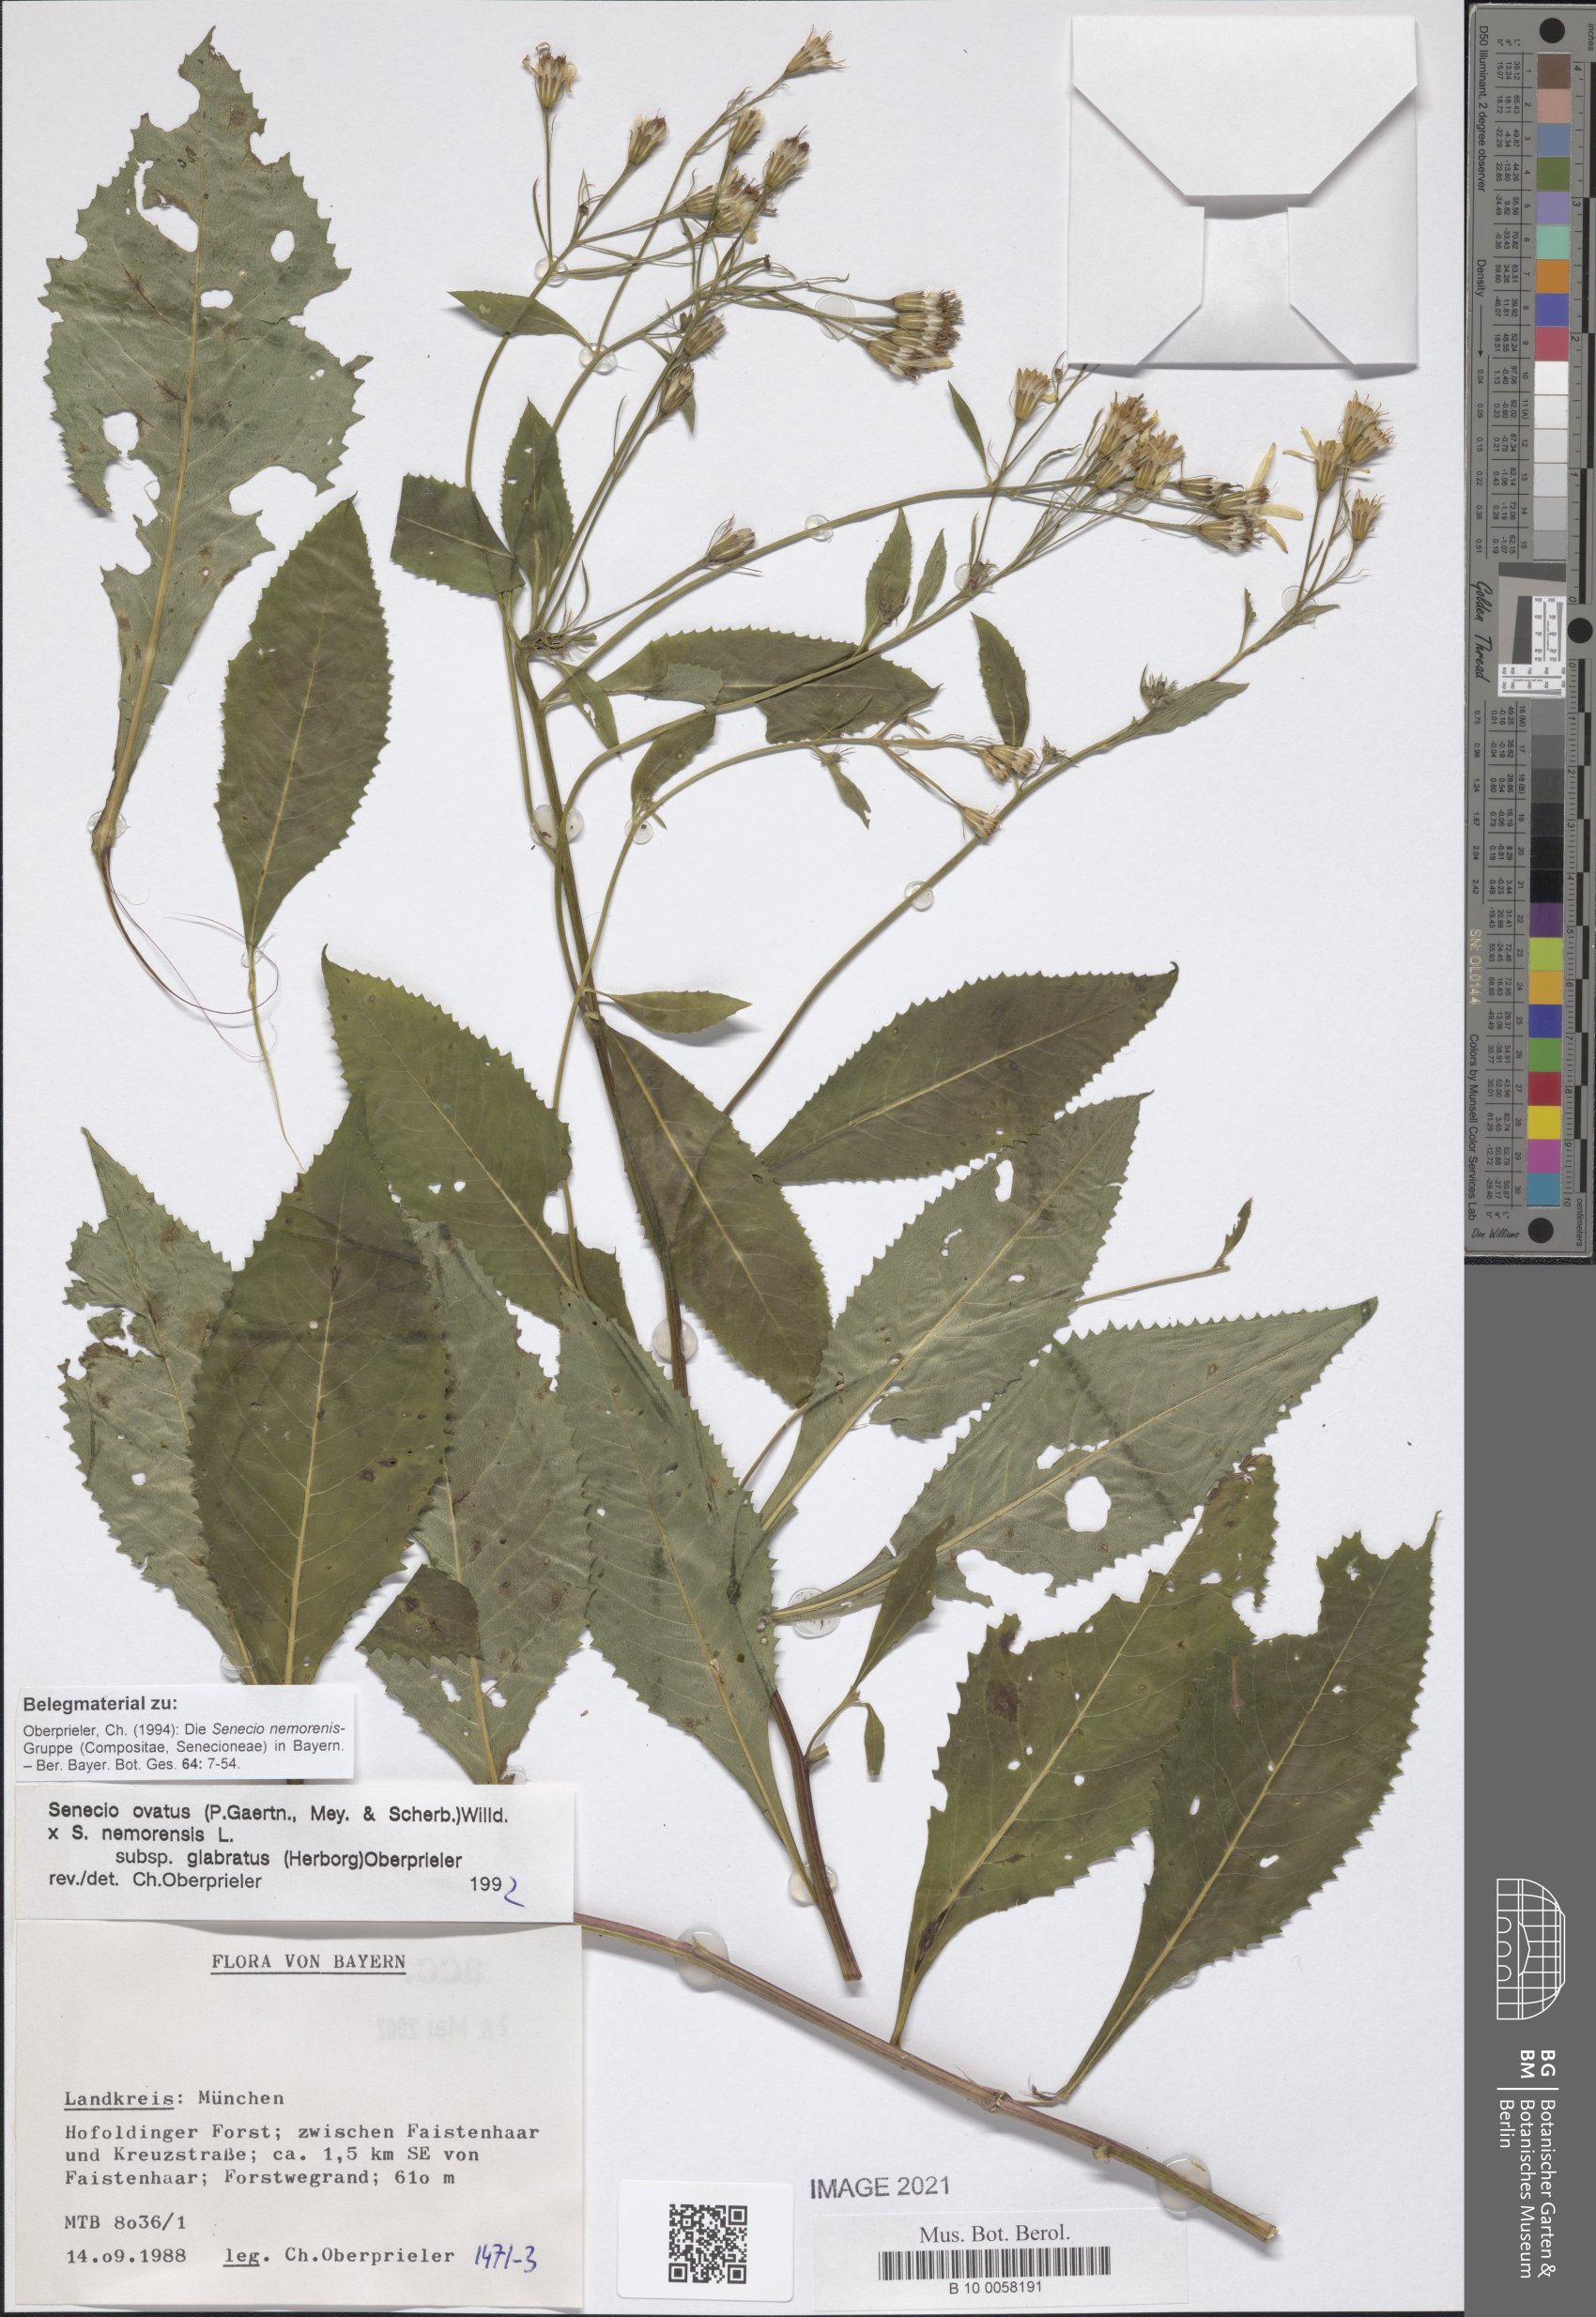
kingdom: Plantae
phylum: Tracheophyta
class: Magnoliopsida
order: Asterales
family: Asteraceae
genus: Senecio
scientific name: Senecio ovatus
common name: Wood ragwort
